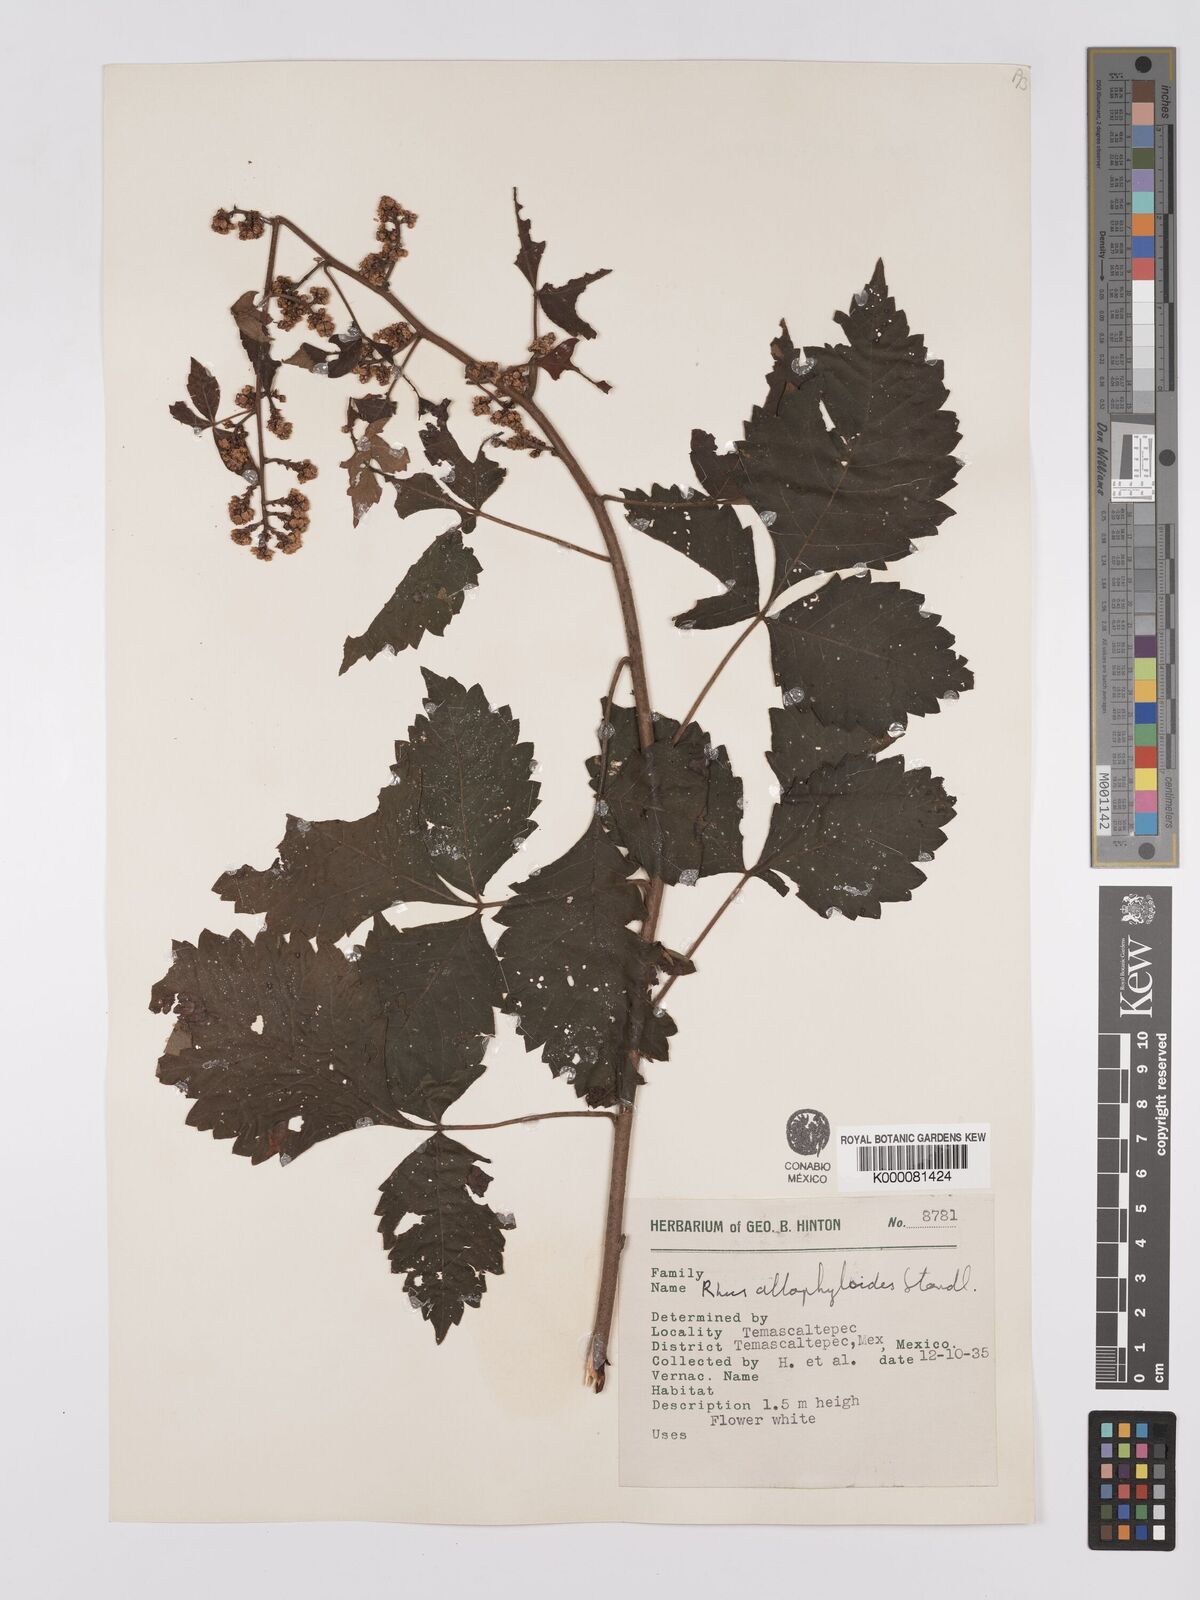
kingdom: Plantae
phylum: Tracheophyta
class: Magnoliopsida
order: Sapindales
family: Anacardiaceae
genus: Rhus
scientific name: Rhus allophyloides
